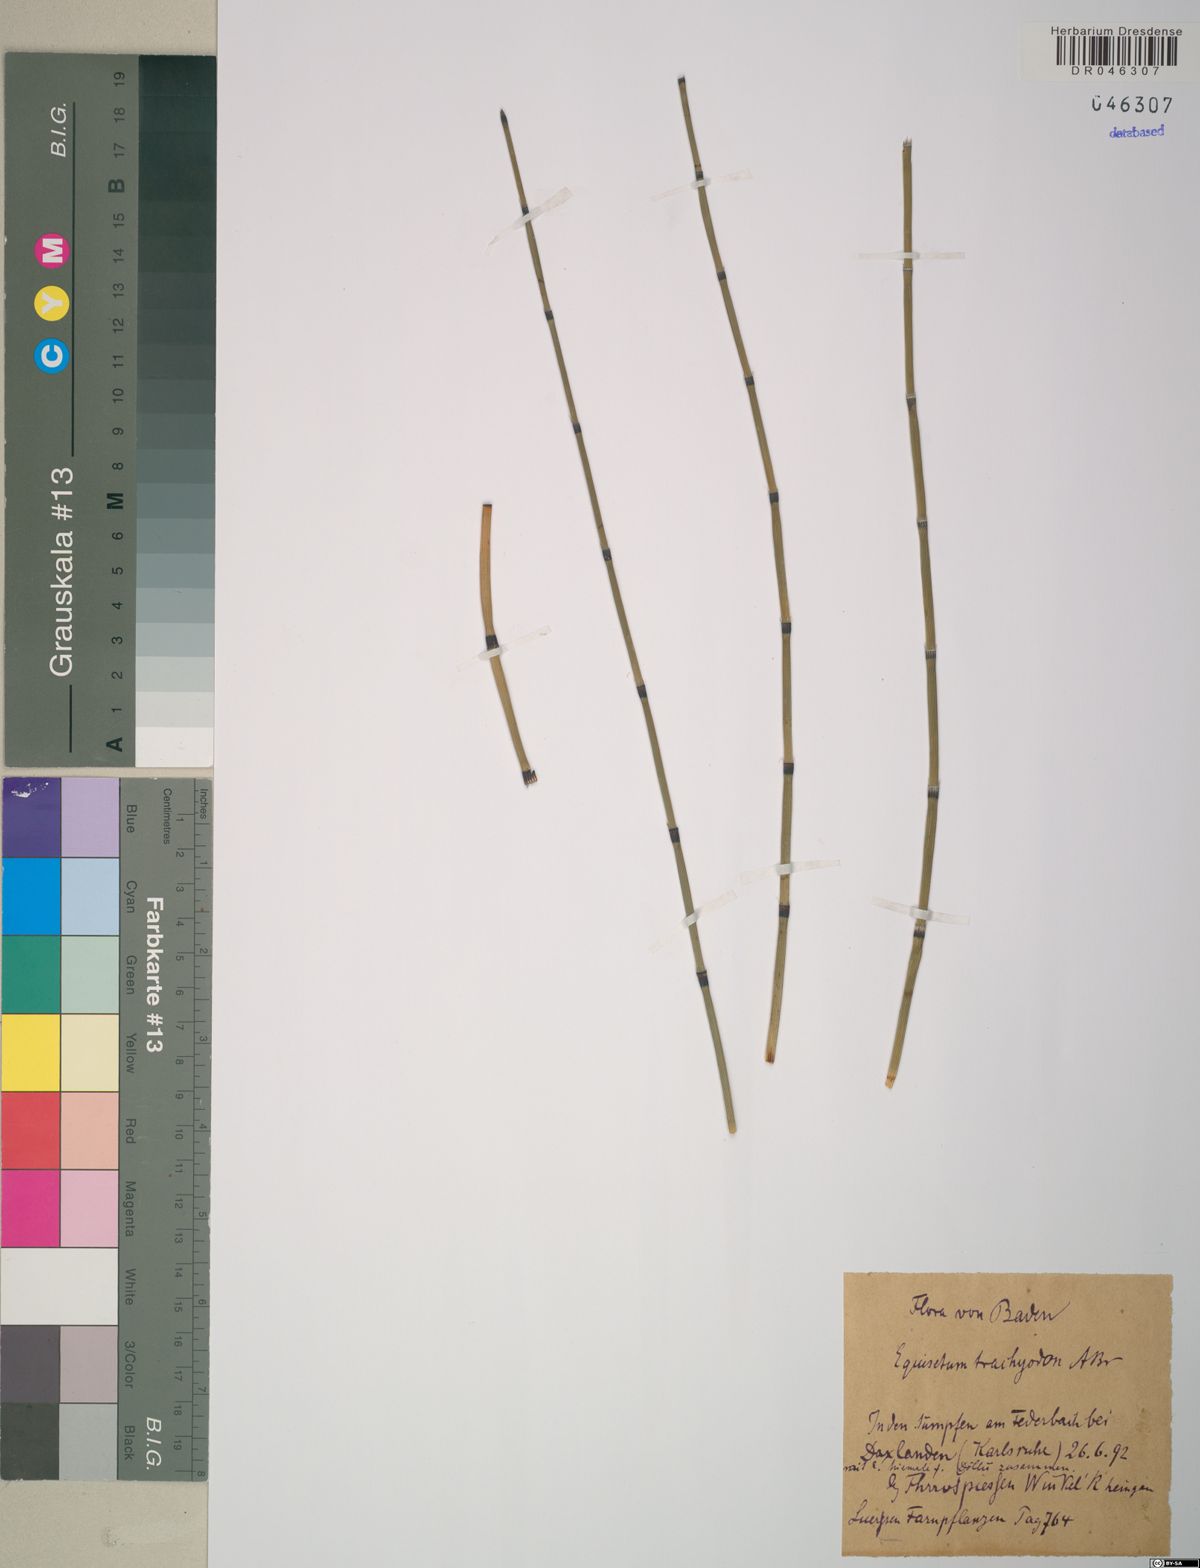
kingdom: Plantae
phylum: Tracheophyta
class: Polypodiopsida
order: Equisetales
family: Equisetaceae
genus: Equisetum
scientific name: Equisetum trachyodon
